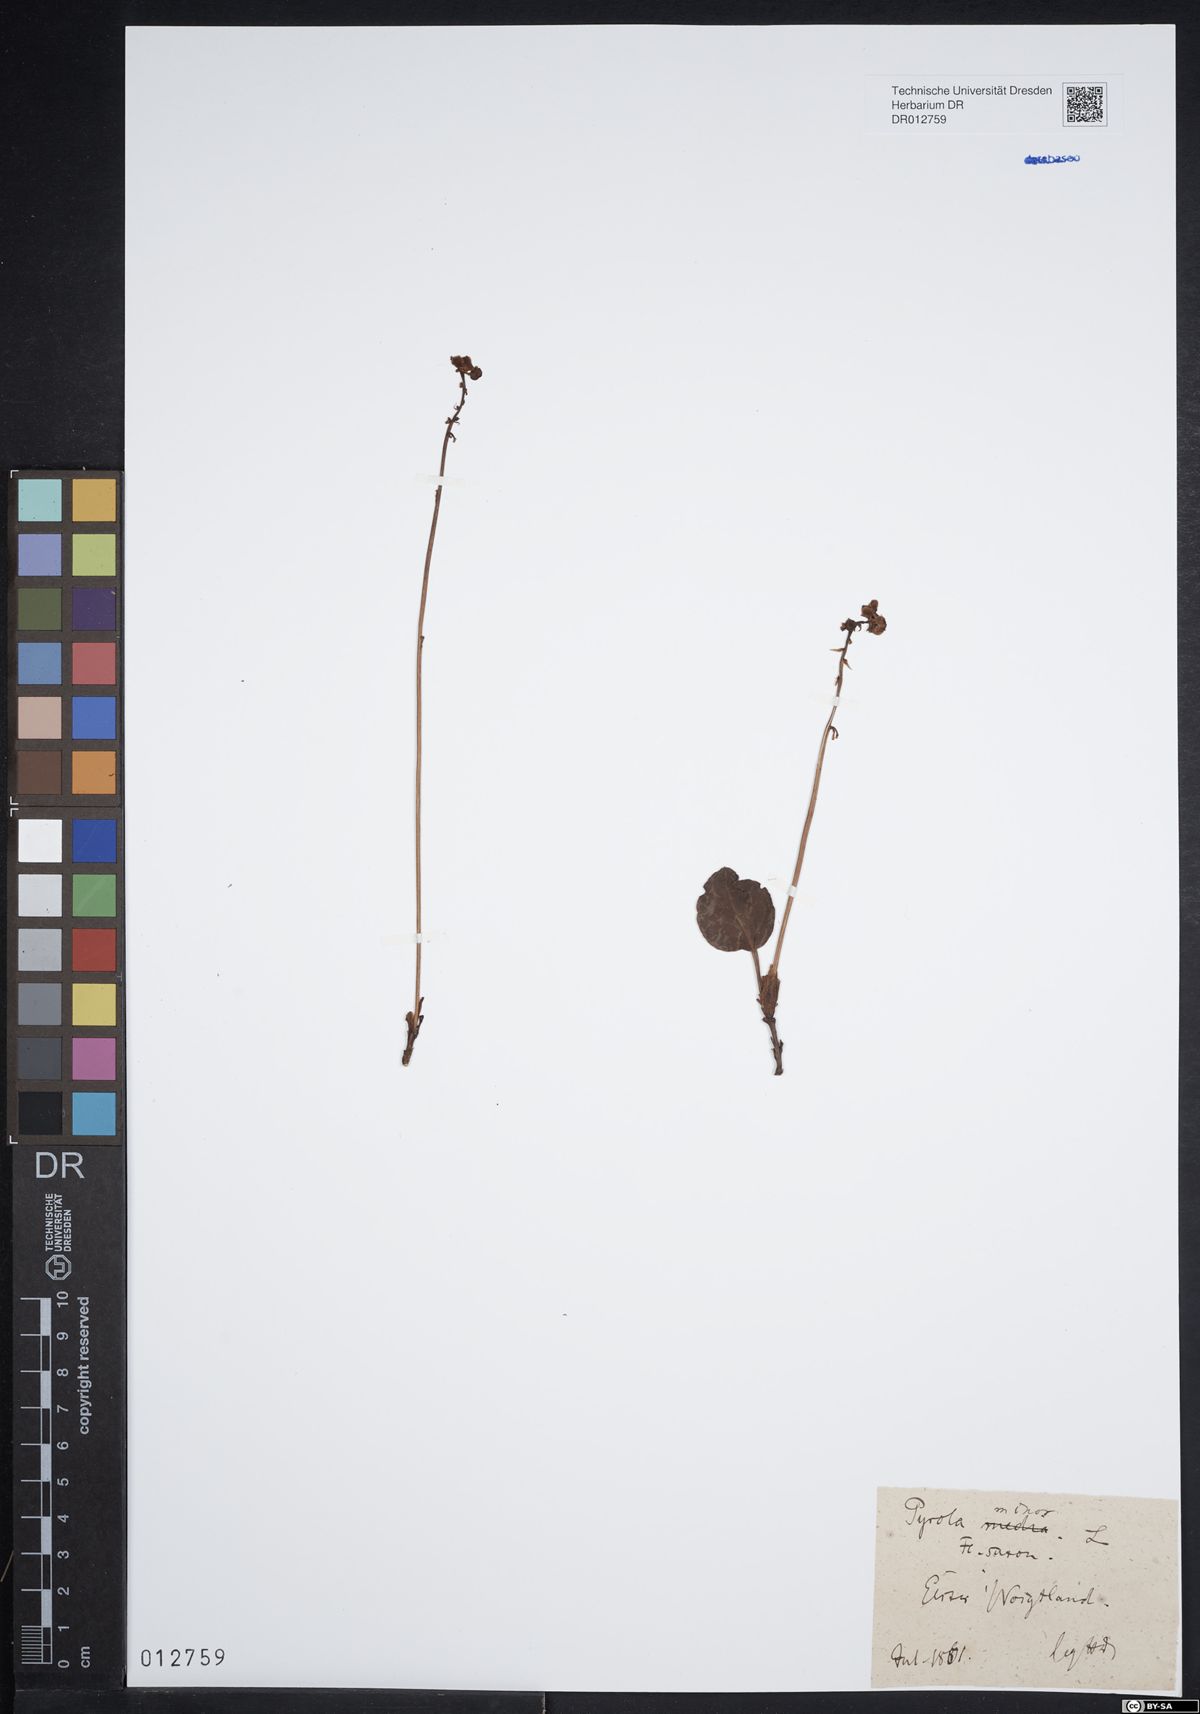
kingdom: Plantae
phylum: Tracheophyta
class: Magnoliopsida
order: Ericales
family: Ericaceae
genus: Pyrola
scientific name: Pyrola minor
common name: Common wintergreen
